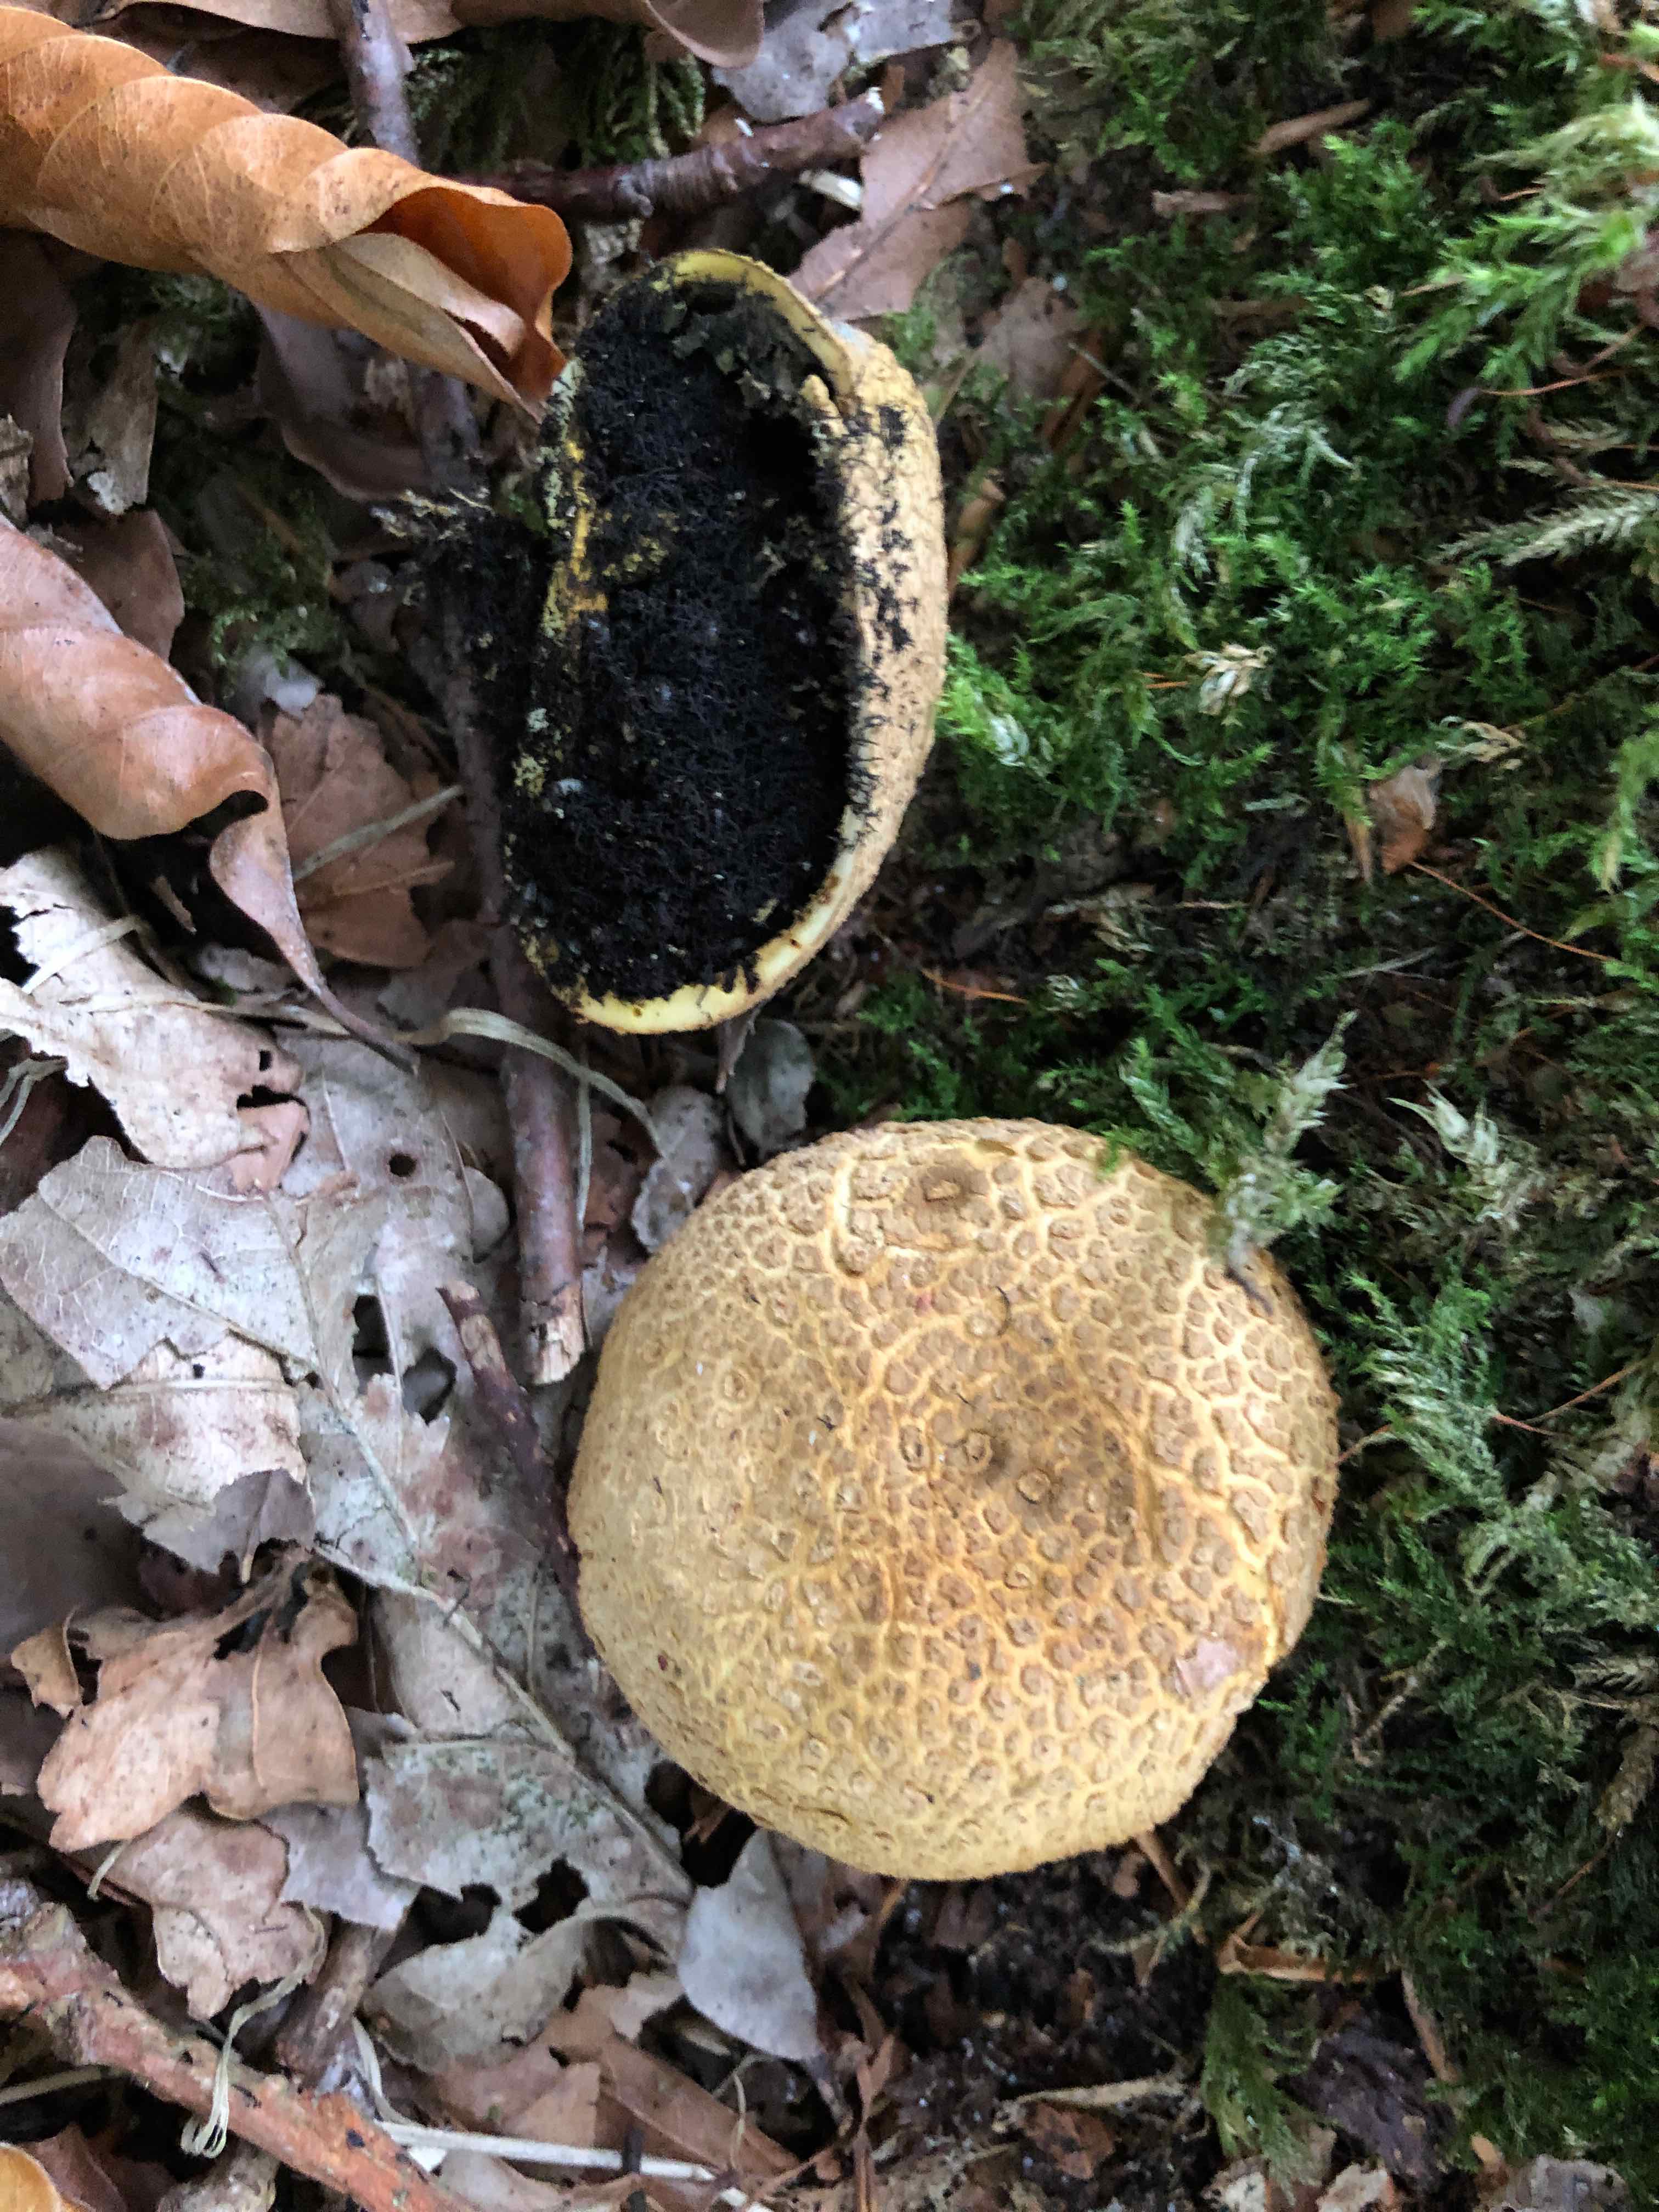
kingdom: Fungi
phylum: Basidiomycota
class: Agaricomycetes
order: Boletales
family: Sclerodermataceae
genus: Scleroderma
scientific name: Scleroderma citrinum
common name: almindelig bruskbold
